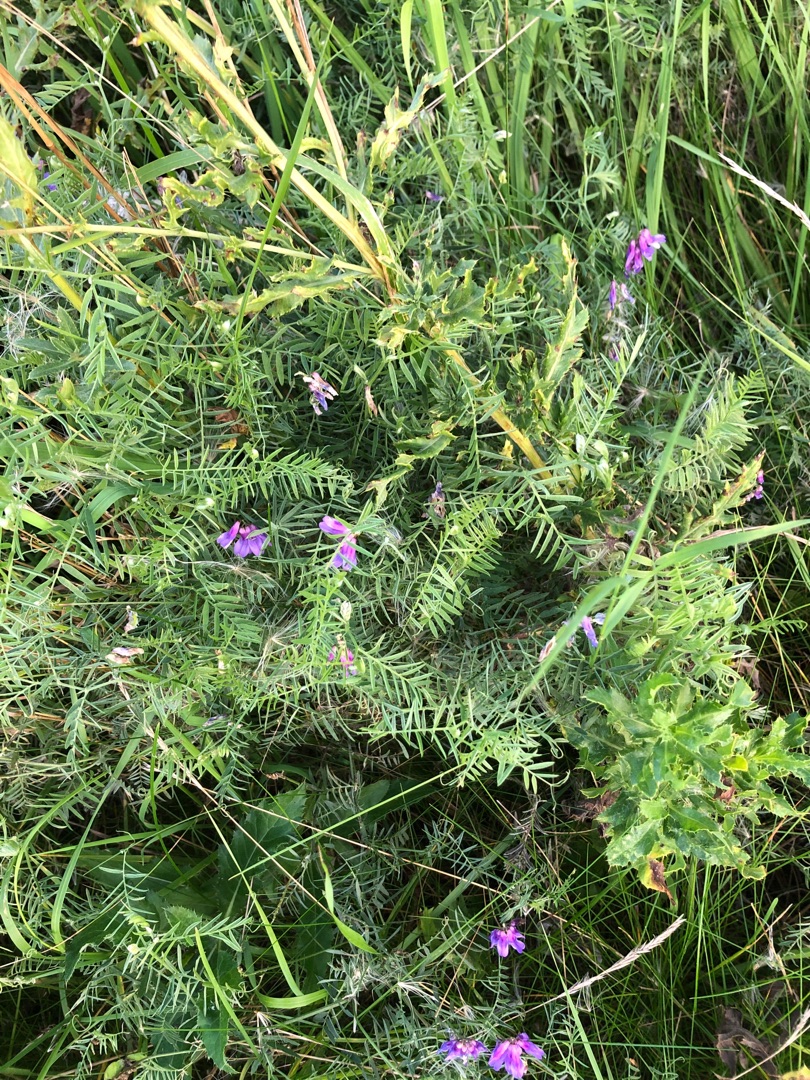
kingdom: Plantae
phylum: Tracheophyta
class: Magnoliopsida
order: Fabales
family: Fabaceae
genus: Vicia
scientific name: Vicia cracca
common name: Muse-vikke
